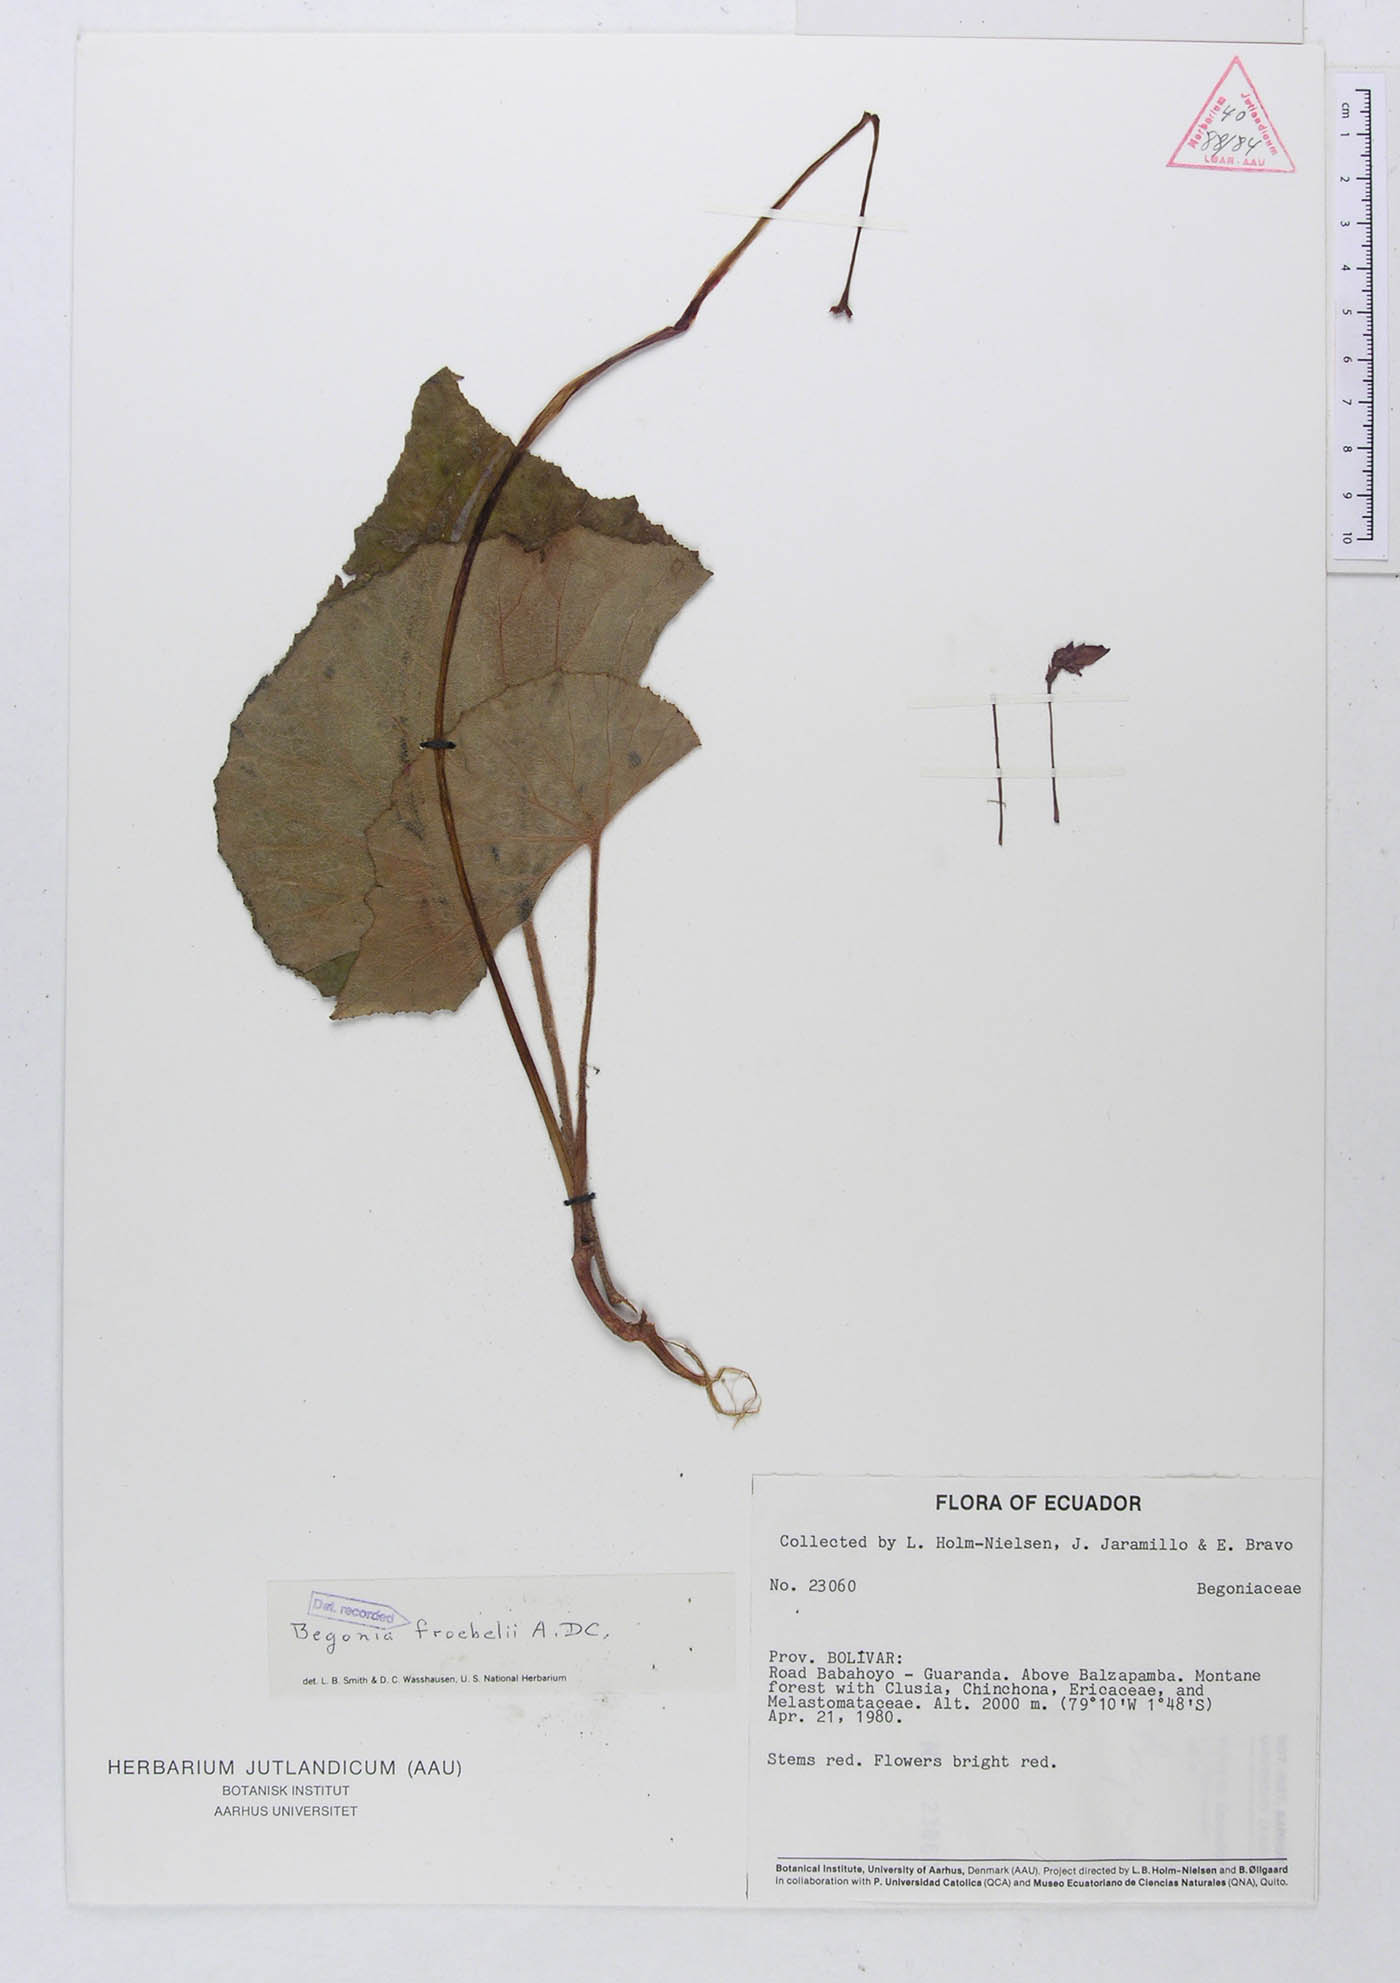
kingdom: Plantae
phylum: Tracheophyta
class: Magnoliopsida
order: Cucurbitales
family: Begoniaceae
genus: Begonia
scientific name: Begonia froebelii
